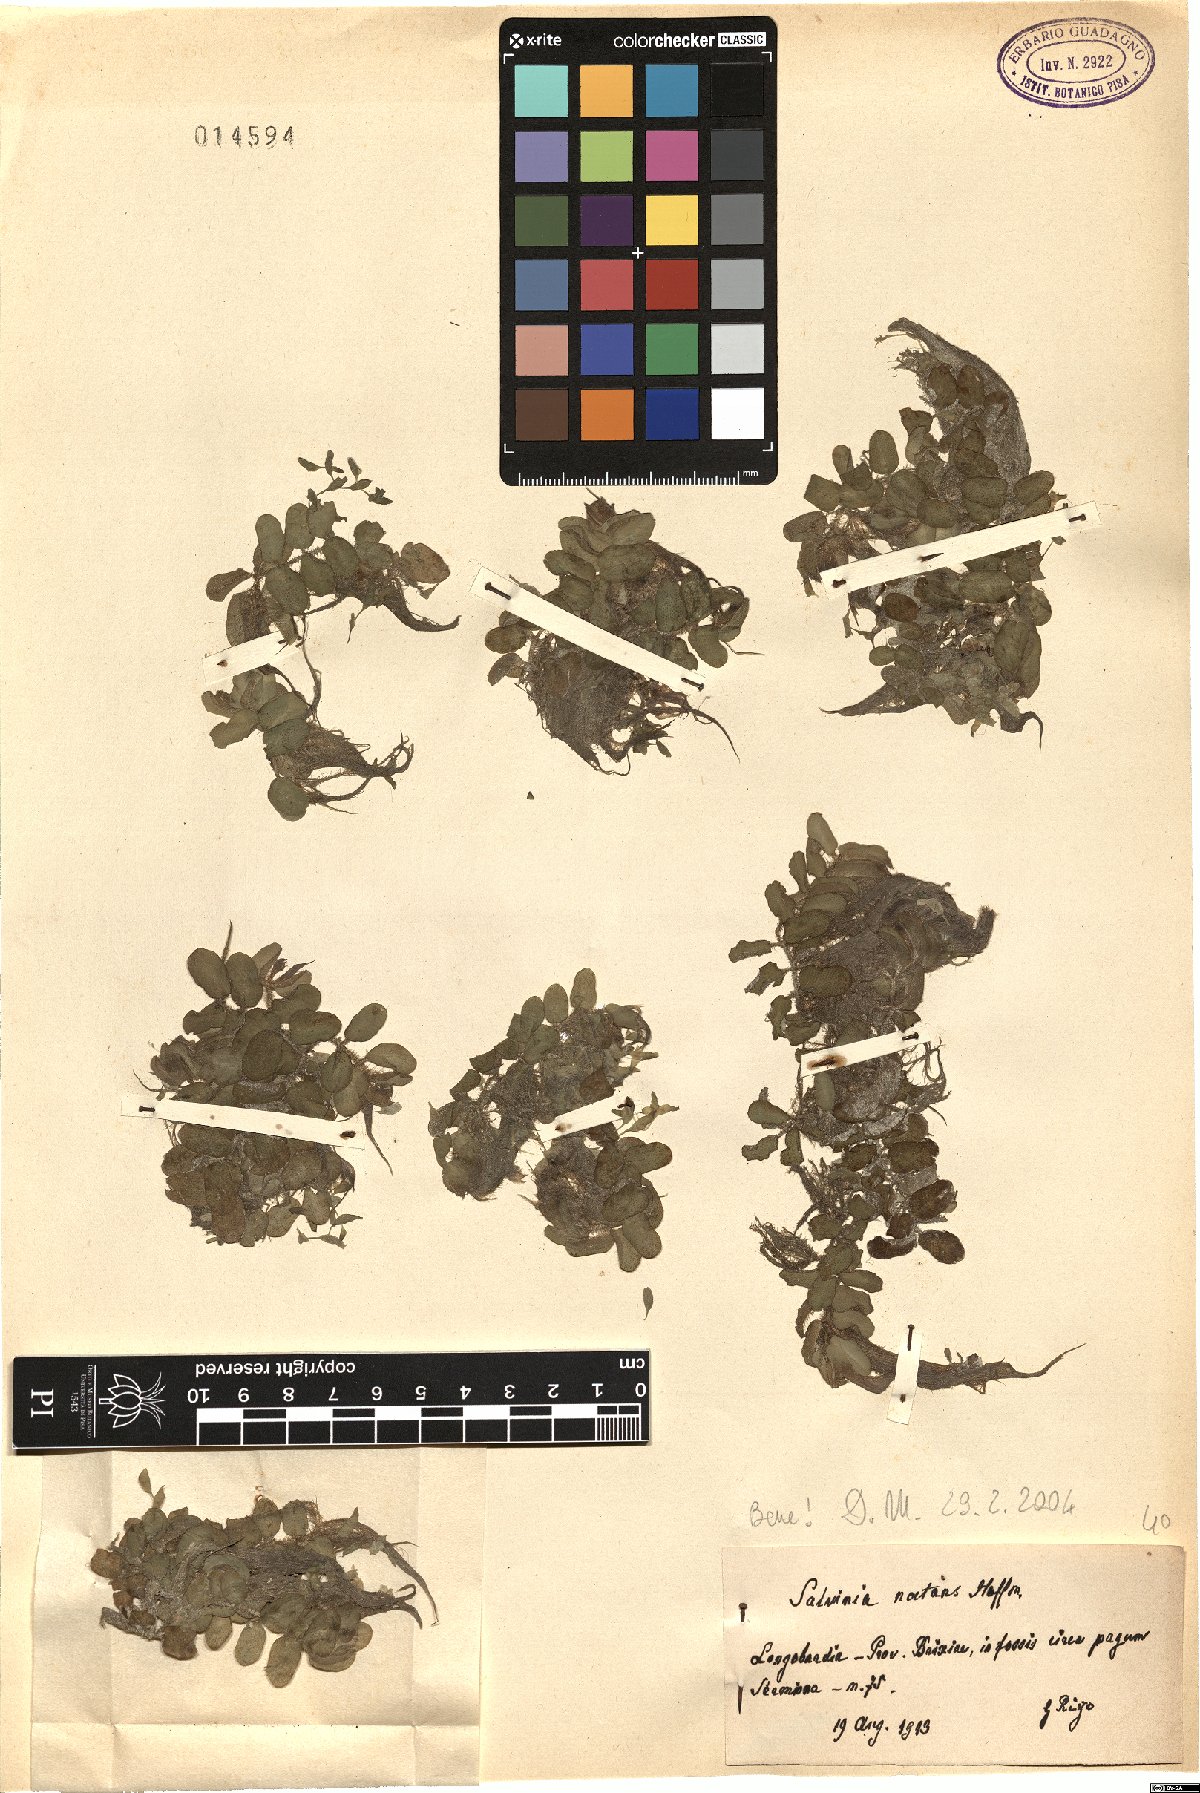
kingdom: Plantae
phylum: Tracheophyta
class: Polypodiopsida
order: Salviniales
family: Salviniaceae
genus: Salvinia
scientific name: Salvinia natans
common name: Floating fern
